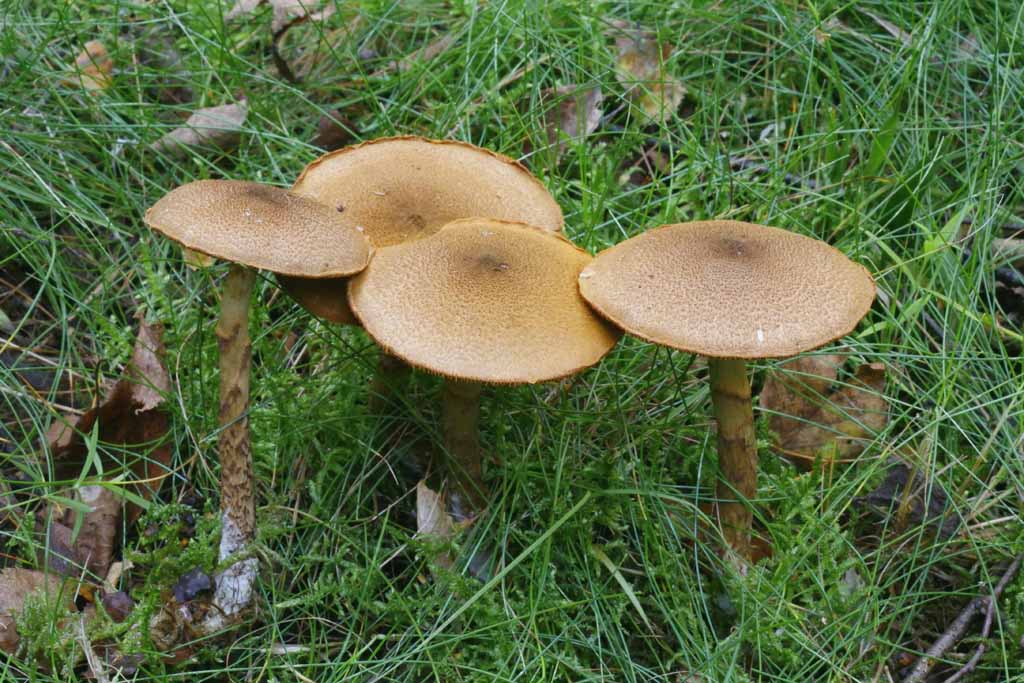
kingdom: Fungi
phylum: Basidiomycota
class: Agaricomycetes
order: Agaricales
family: Cortinariaceae
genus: Cortinarius
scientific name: Cortinarius pholideus
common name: brunskællet slørhat
